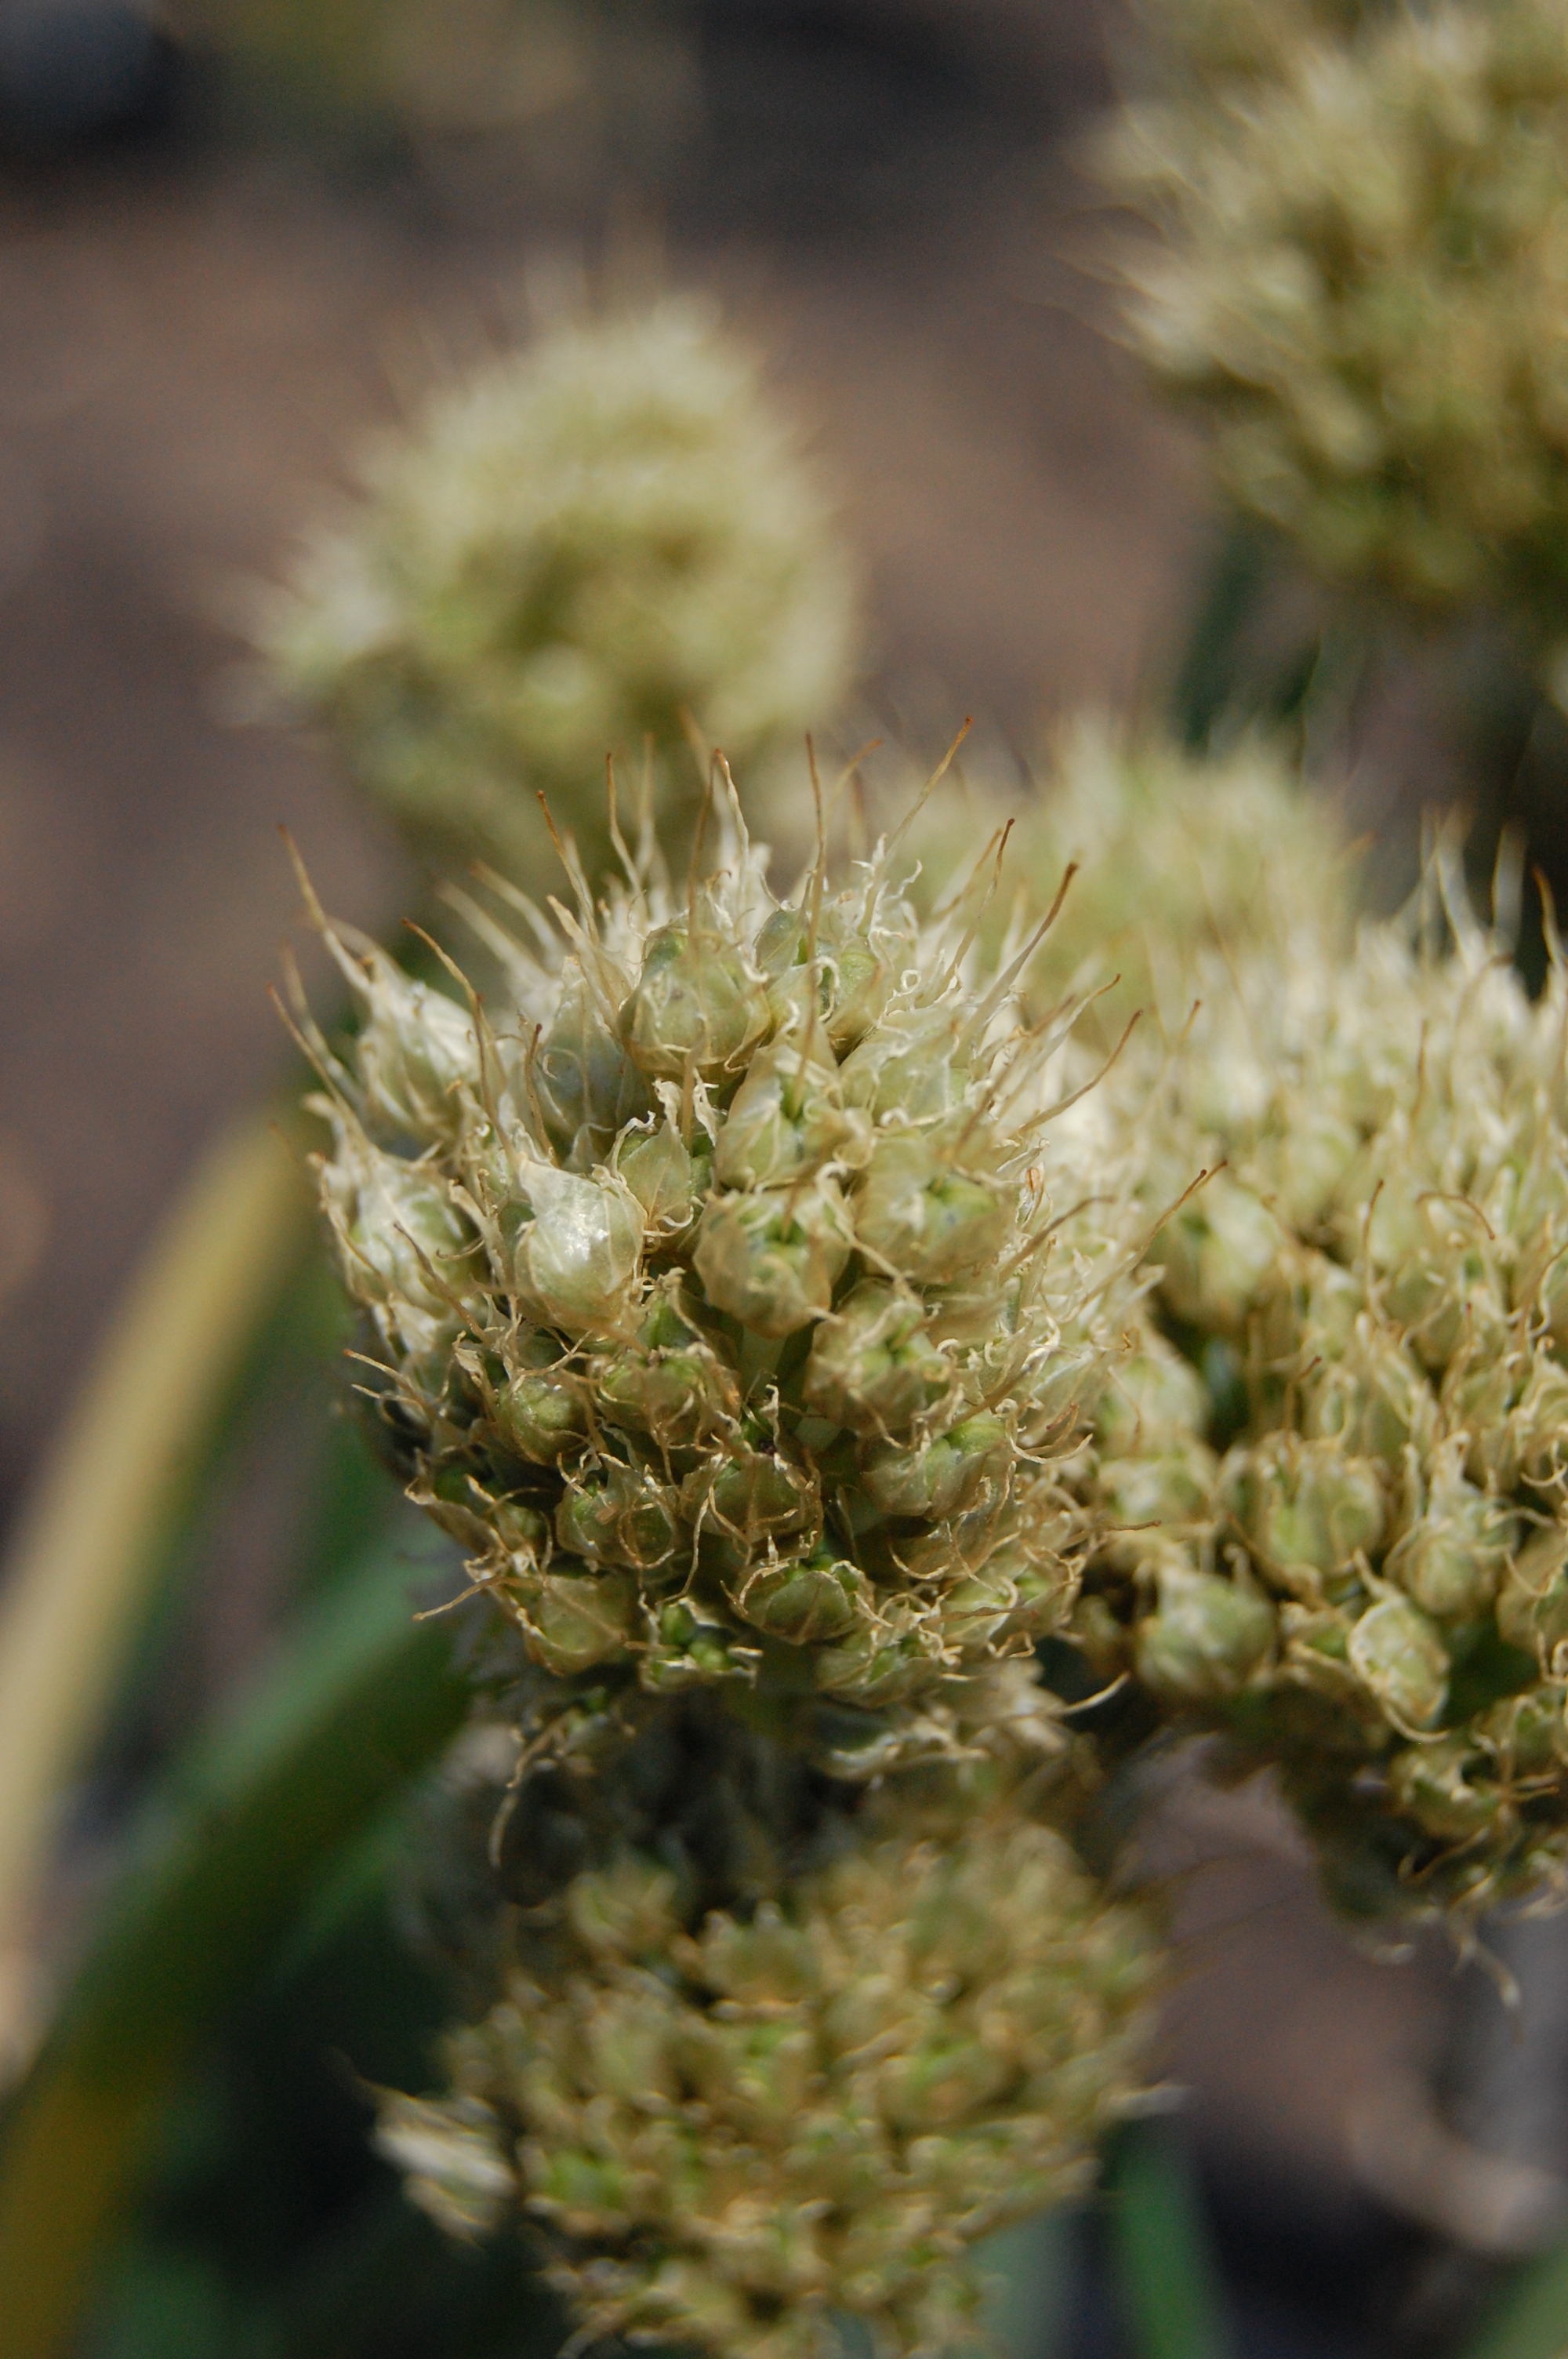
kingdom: Plantae
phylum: Tracheophyta
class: Liliopsida
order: Asparagales
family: Amaryllidaceae
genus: Allium
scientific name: Allium fistulosum
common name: Welsh onion
